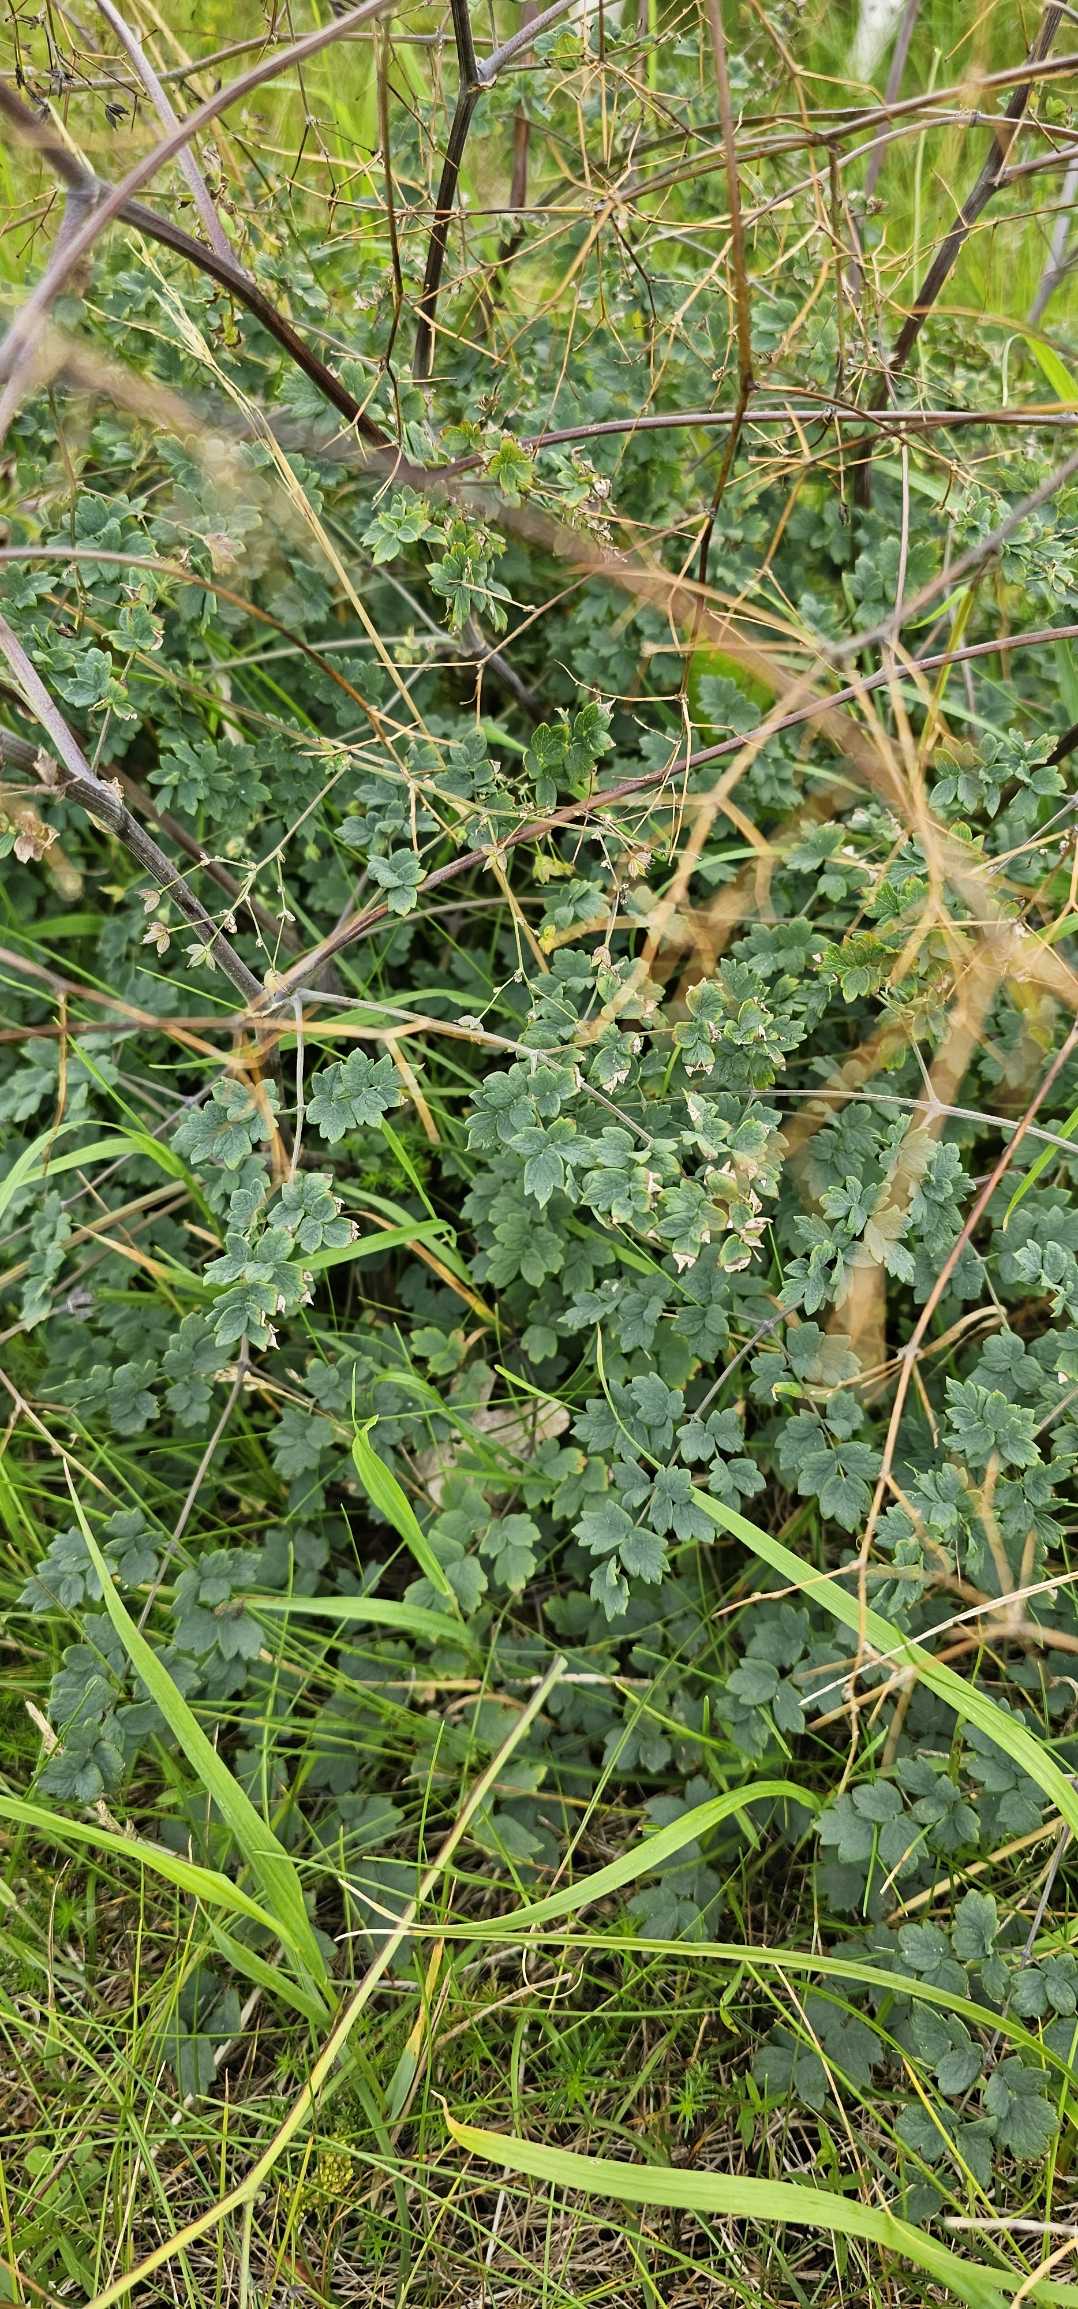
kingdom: Plantae
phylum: Tracheophyta
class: Magnoliopsida
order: Ranunculales
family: Ranunculaceae
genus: Thalictrum
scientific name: Thalictrum minus
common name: Liden frøstjerne
